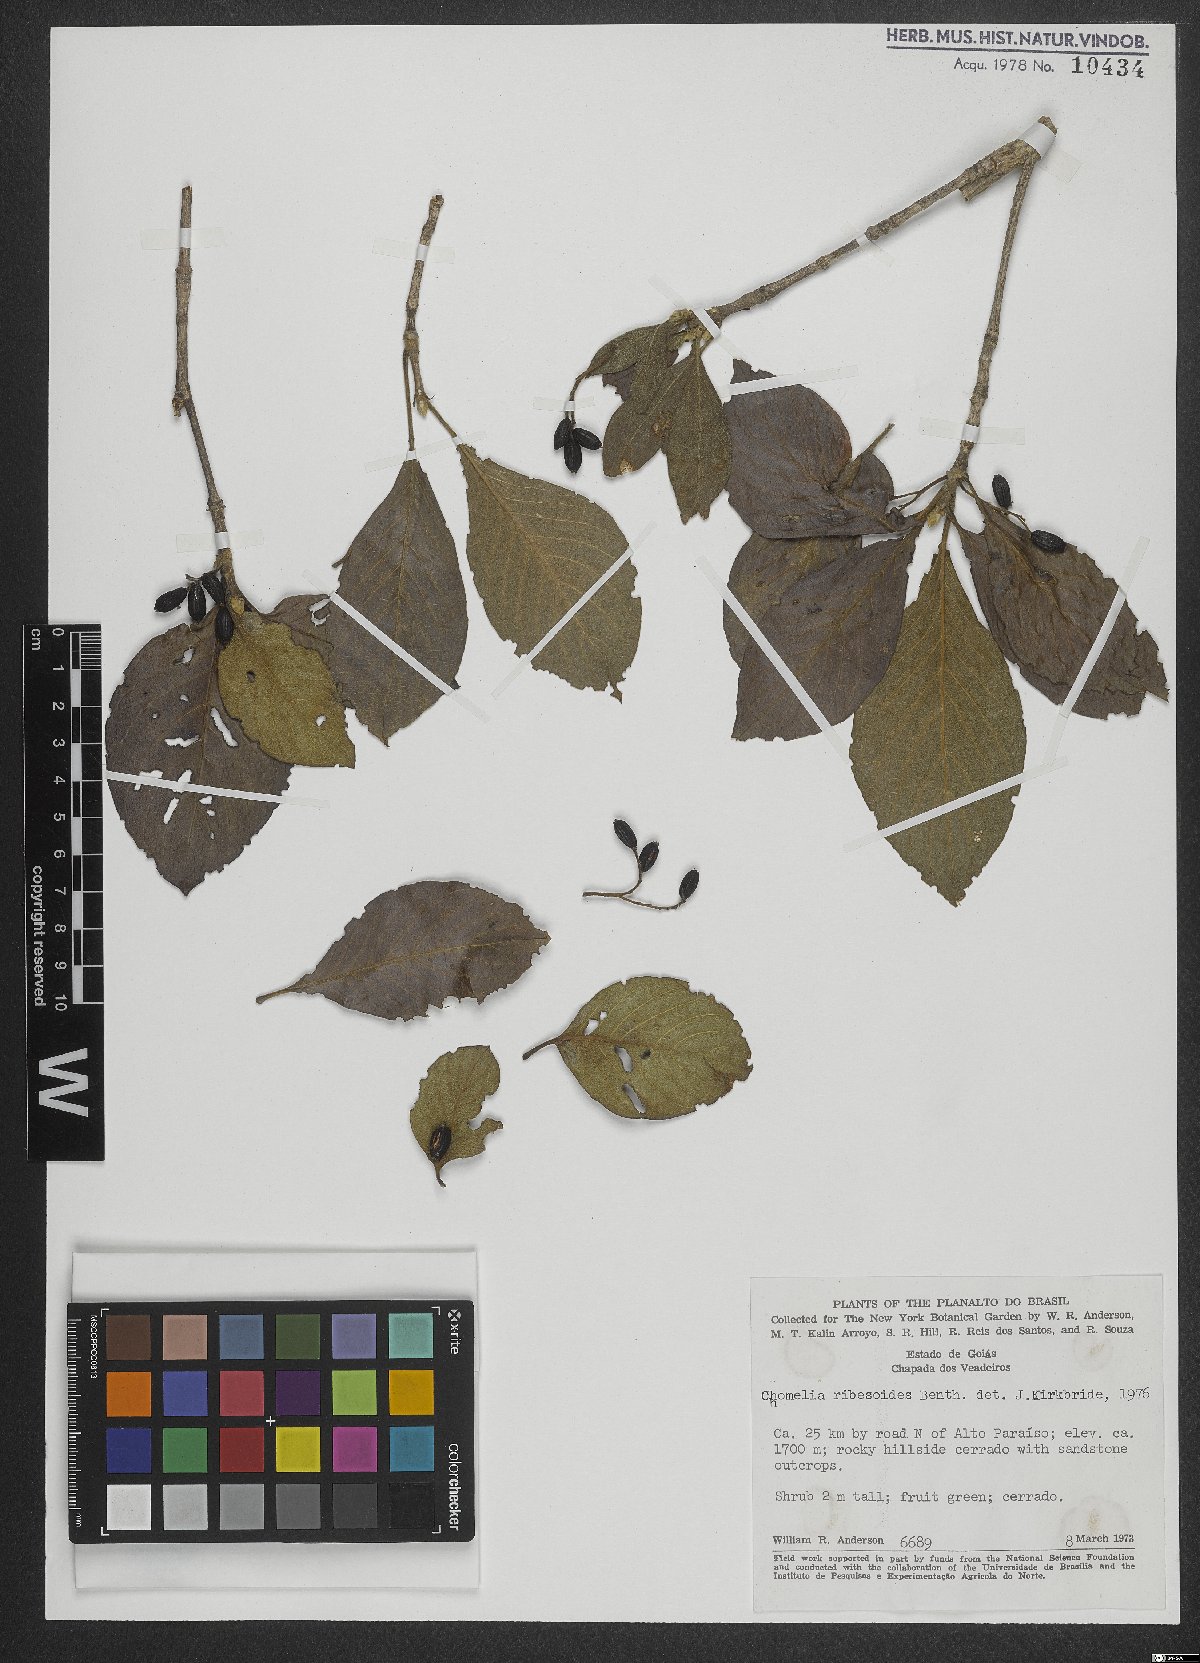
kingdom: Plantae
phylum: Tracheophyta
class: Magnoliopsida
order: Gentianales
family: Rubiaceae
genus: Chomelia
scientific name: Chomelia ribesioides
